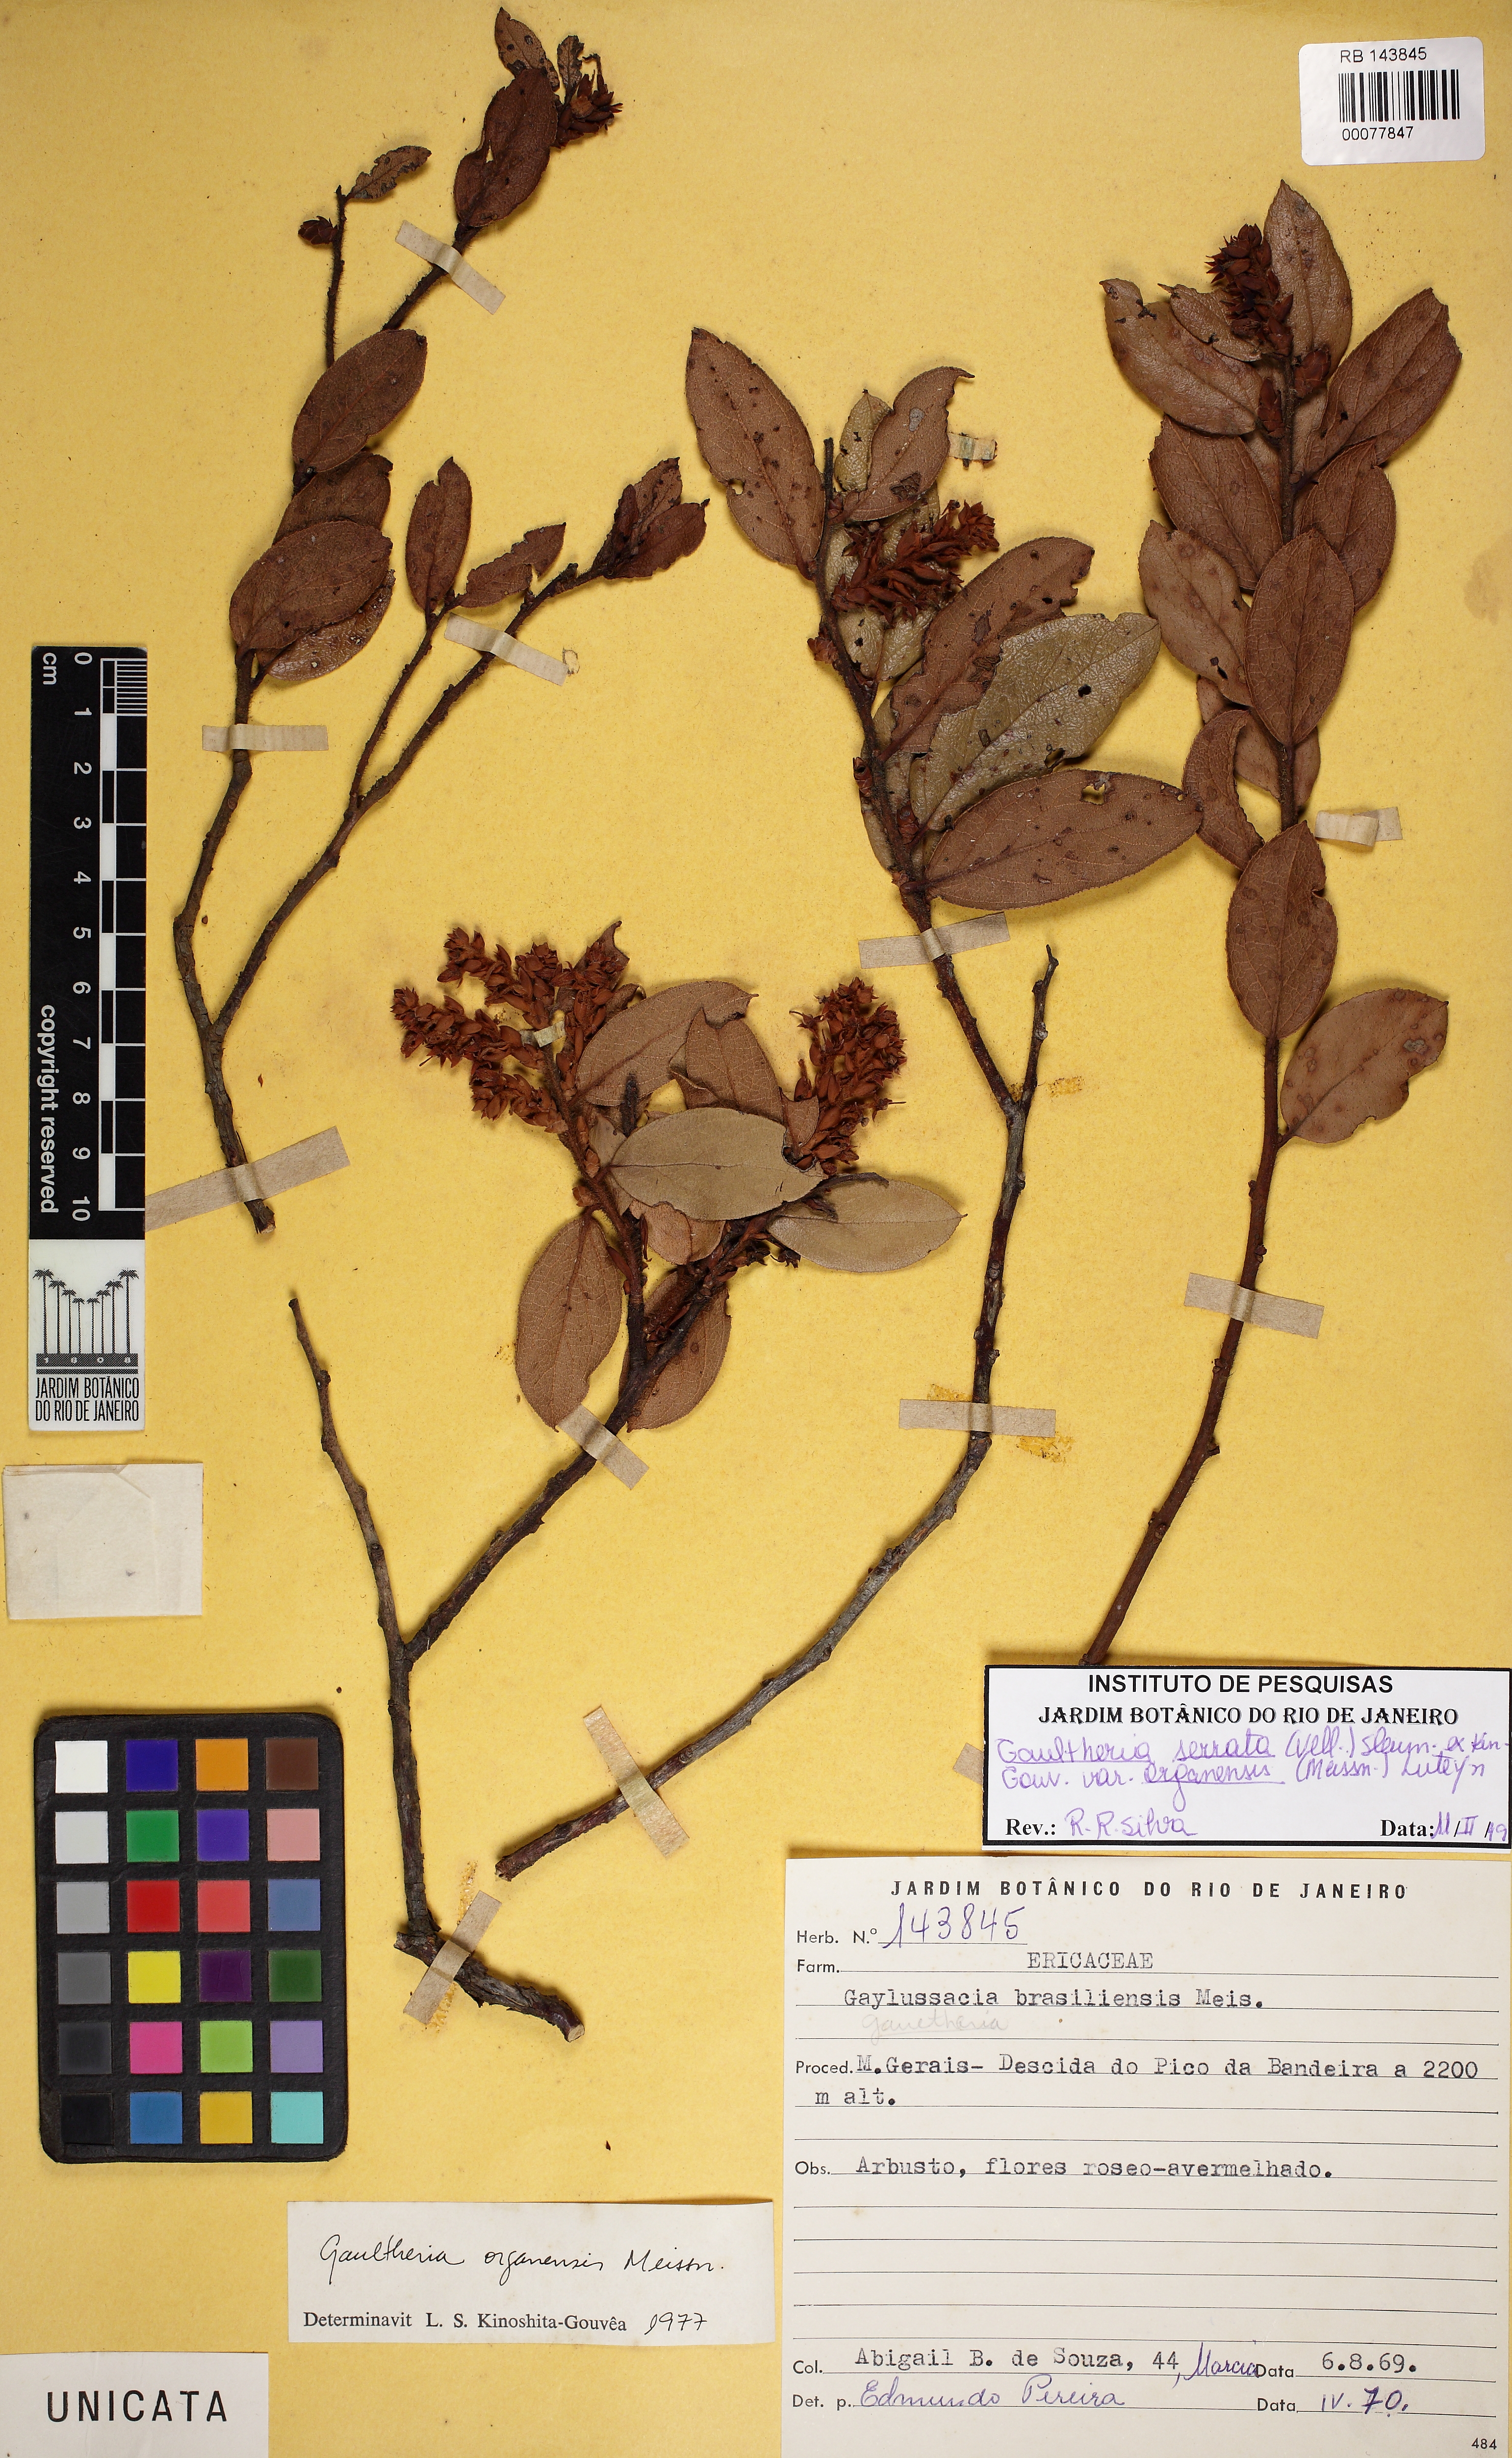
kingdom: Plantae
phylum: Tracheophyta
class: Magnoliopsida
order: Ericales
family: Ericaceae
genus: Gaultheria
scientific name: Gaultheria serrata
